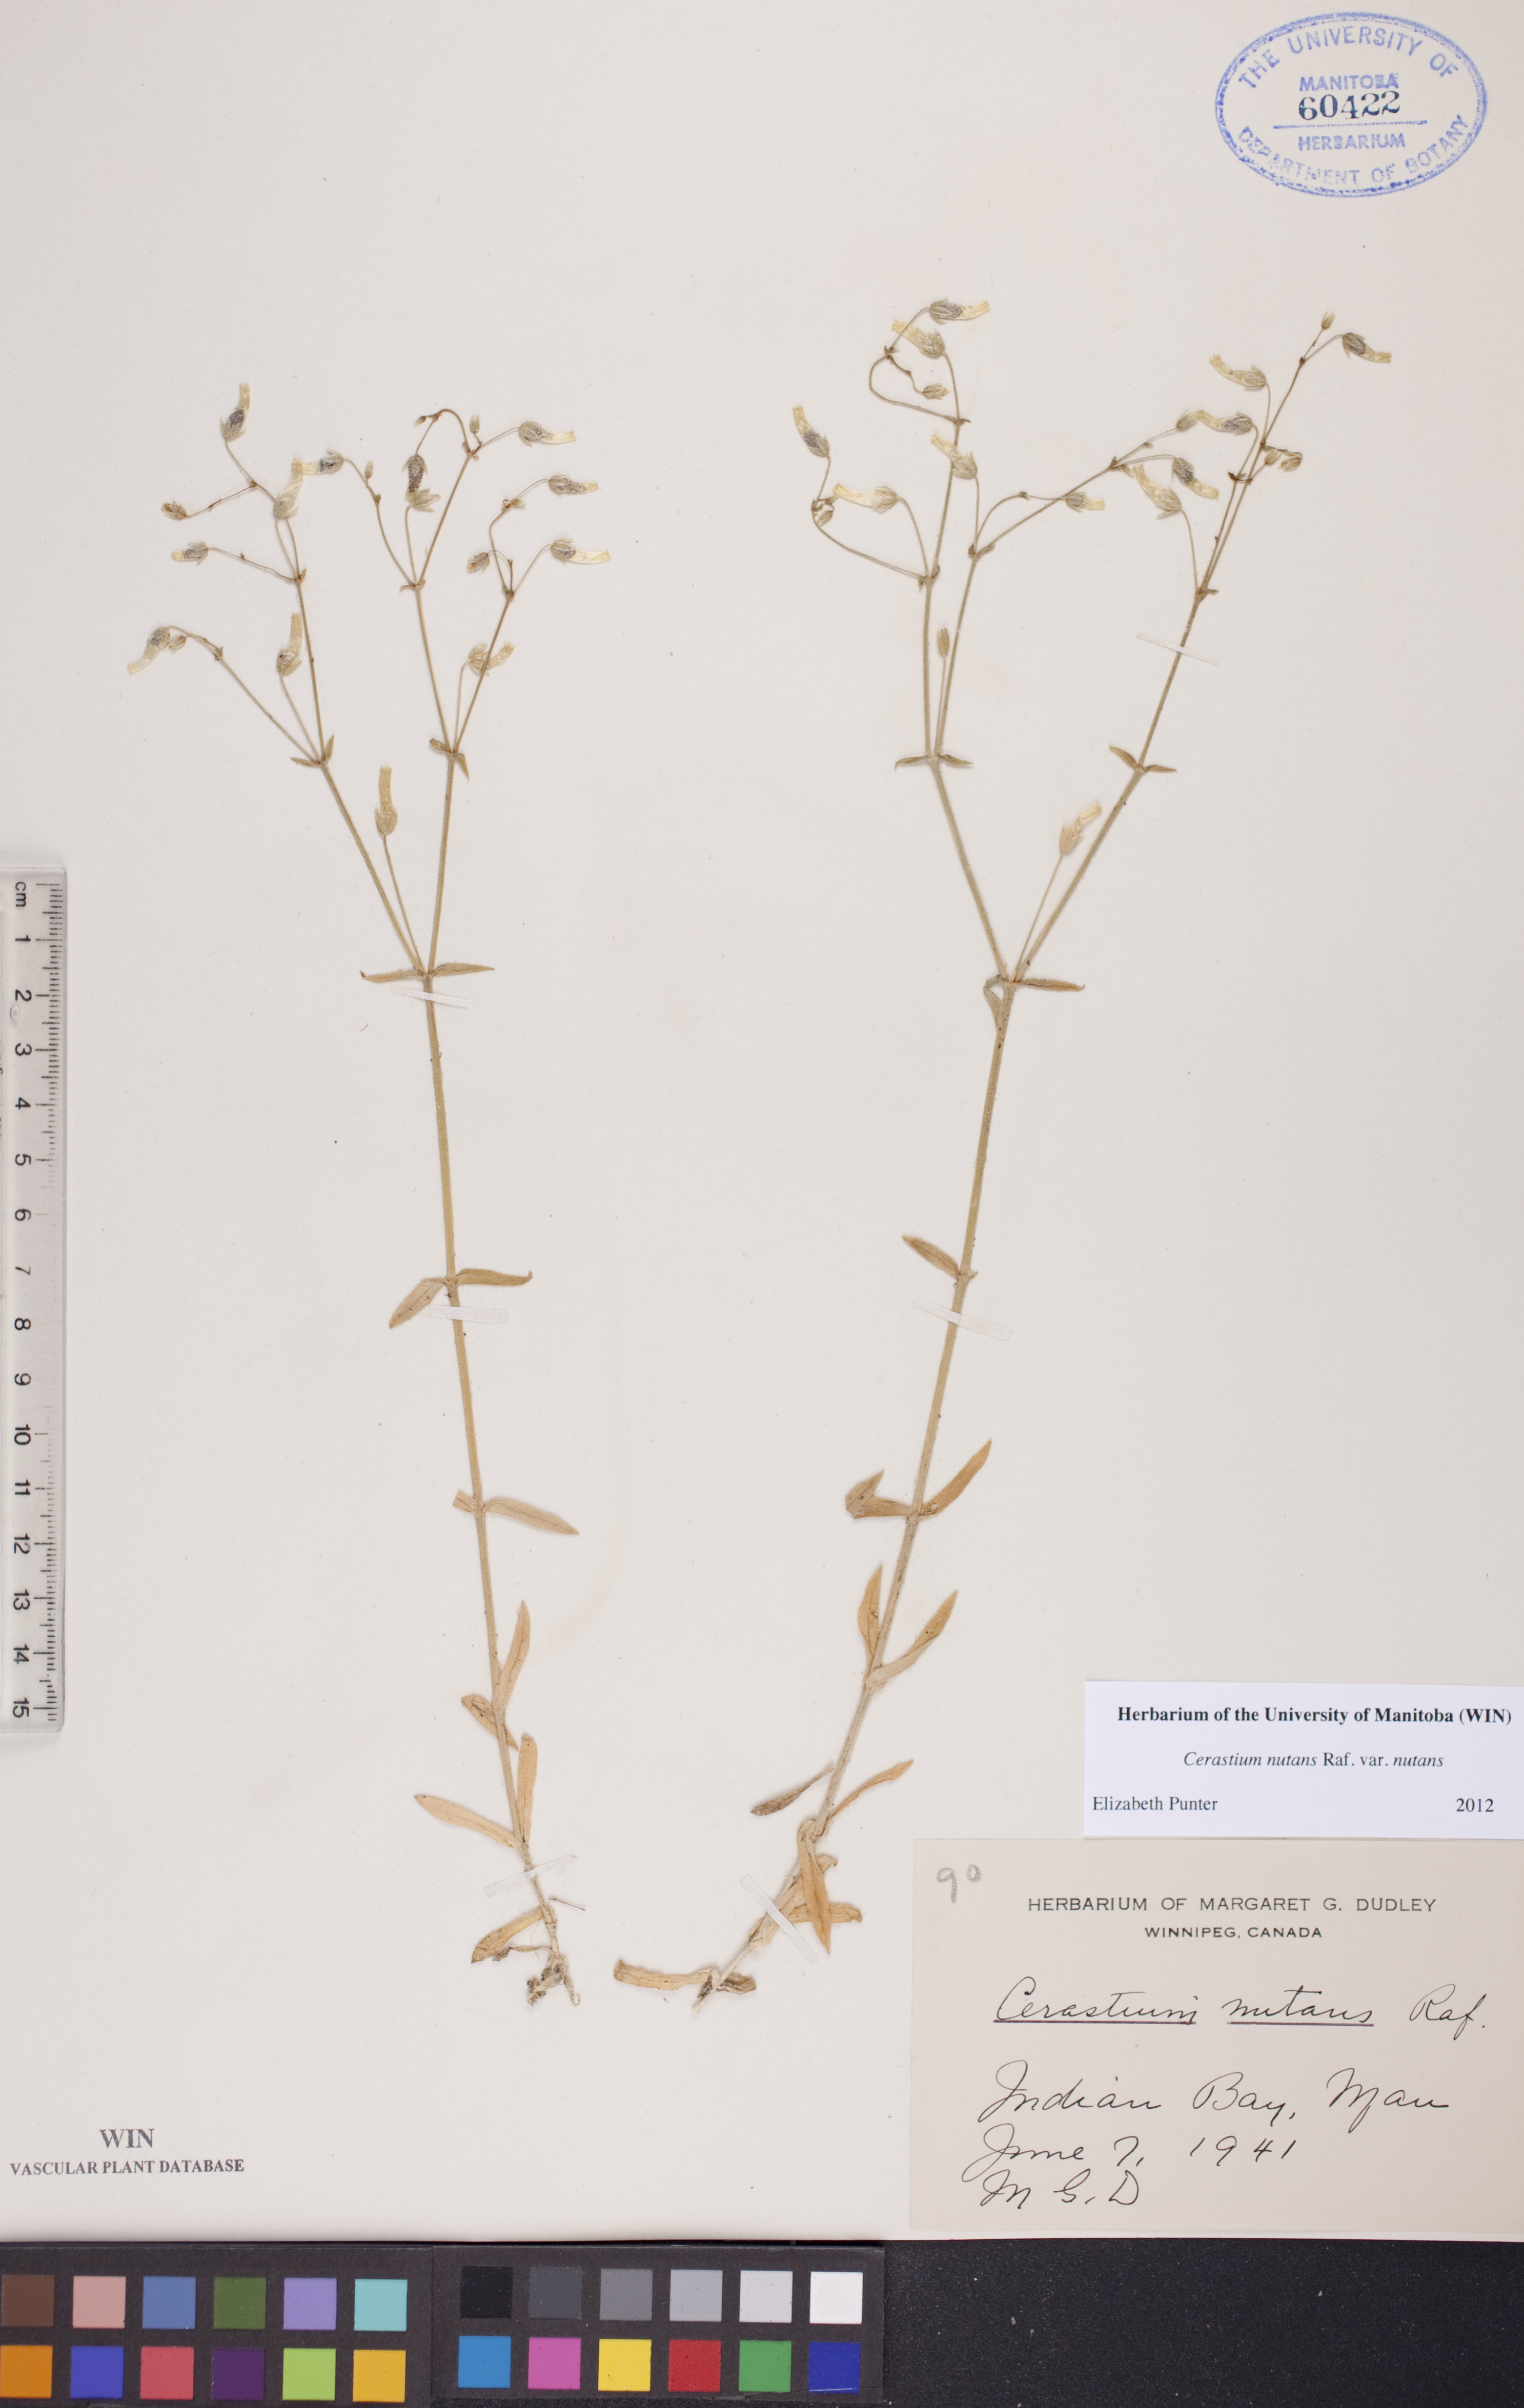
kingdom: Plantae
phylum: Tracheophyta
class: Magnoliopsida
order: Caryophyllales
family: Caryophyllaceae
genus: Cerastium
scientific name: Cerastium nutans
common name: Long-stalked chickweed
